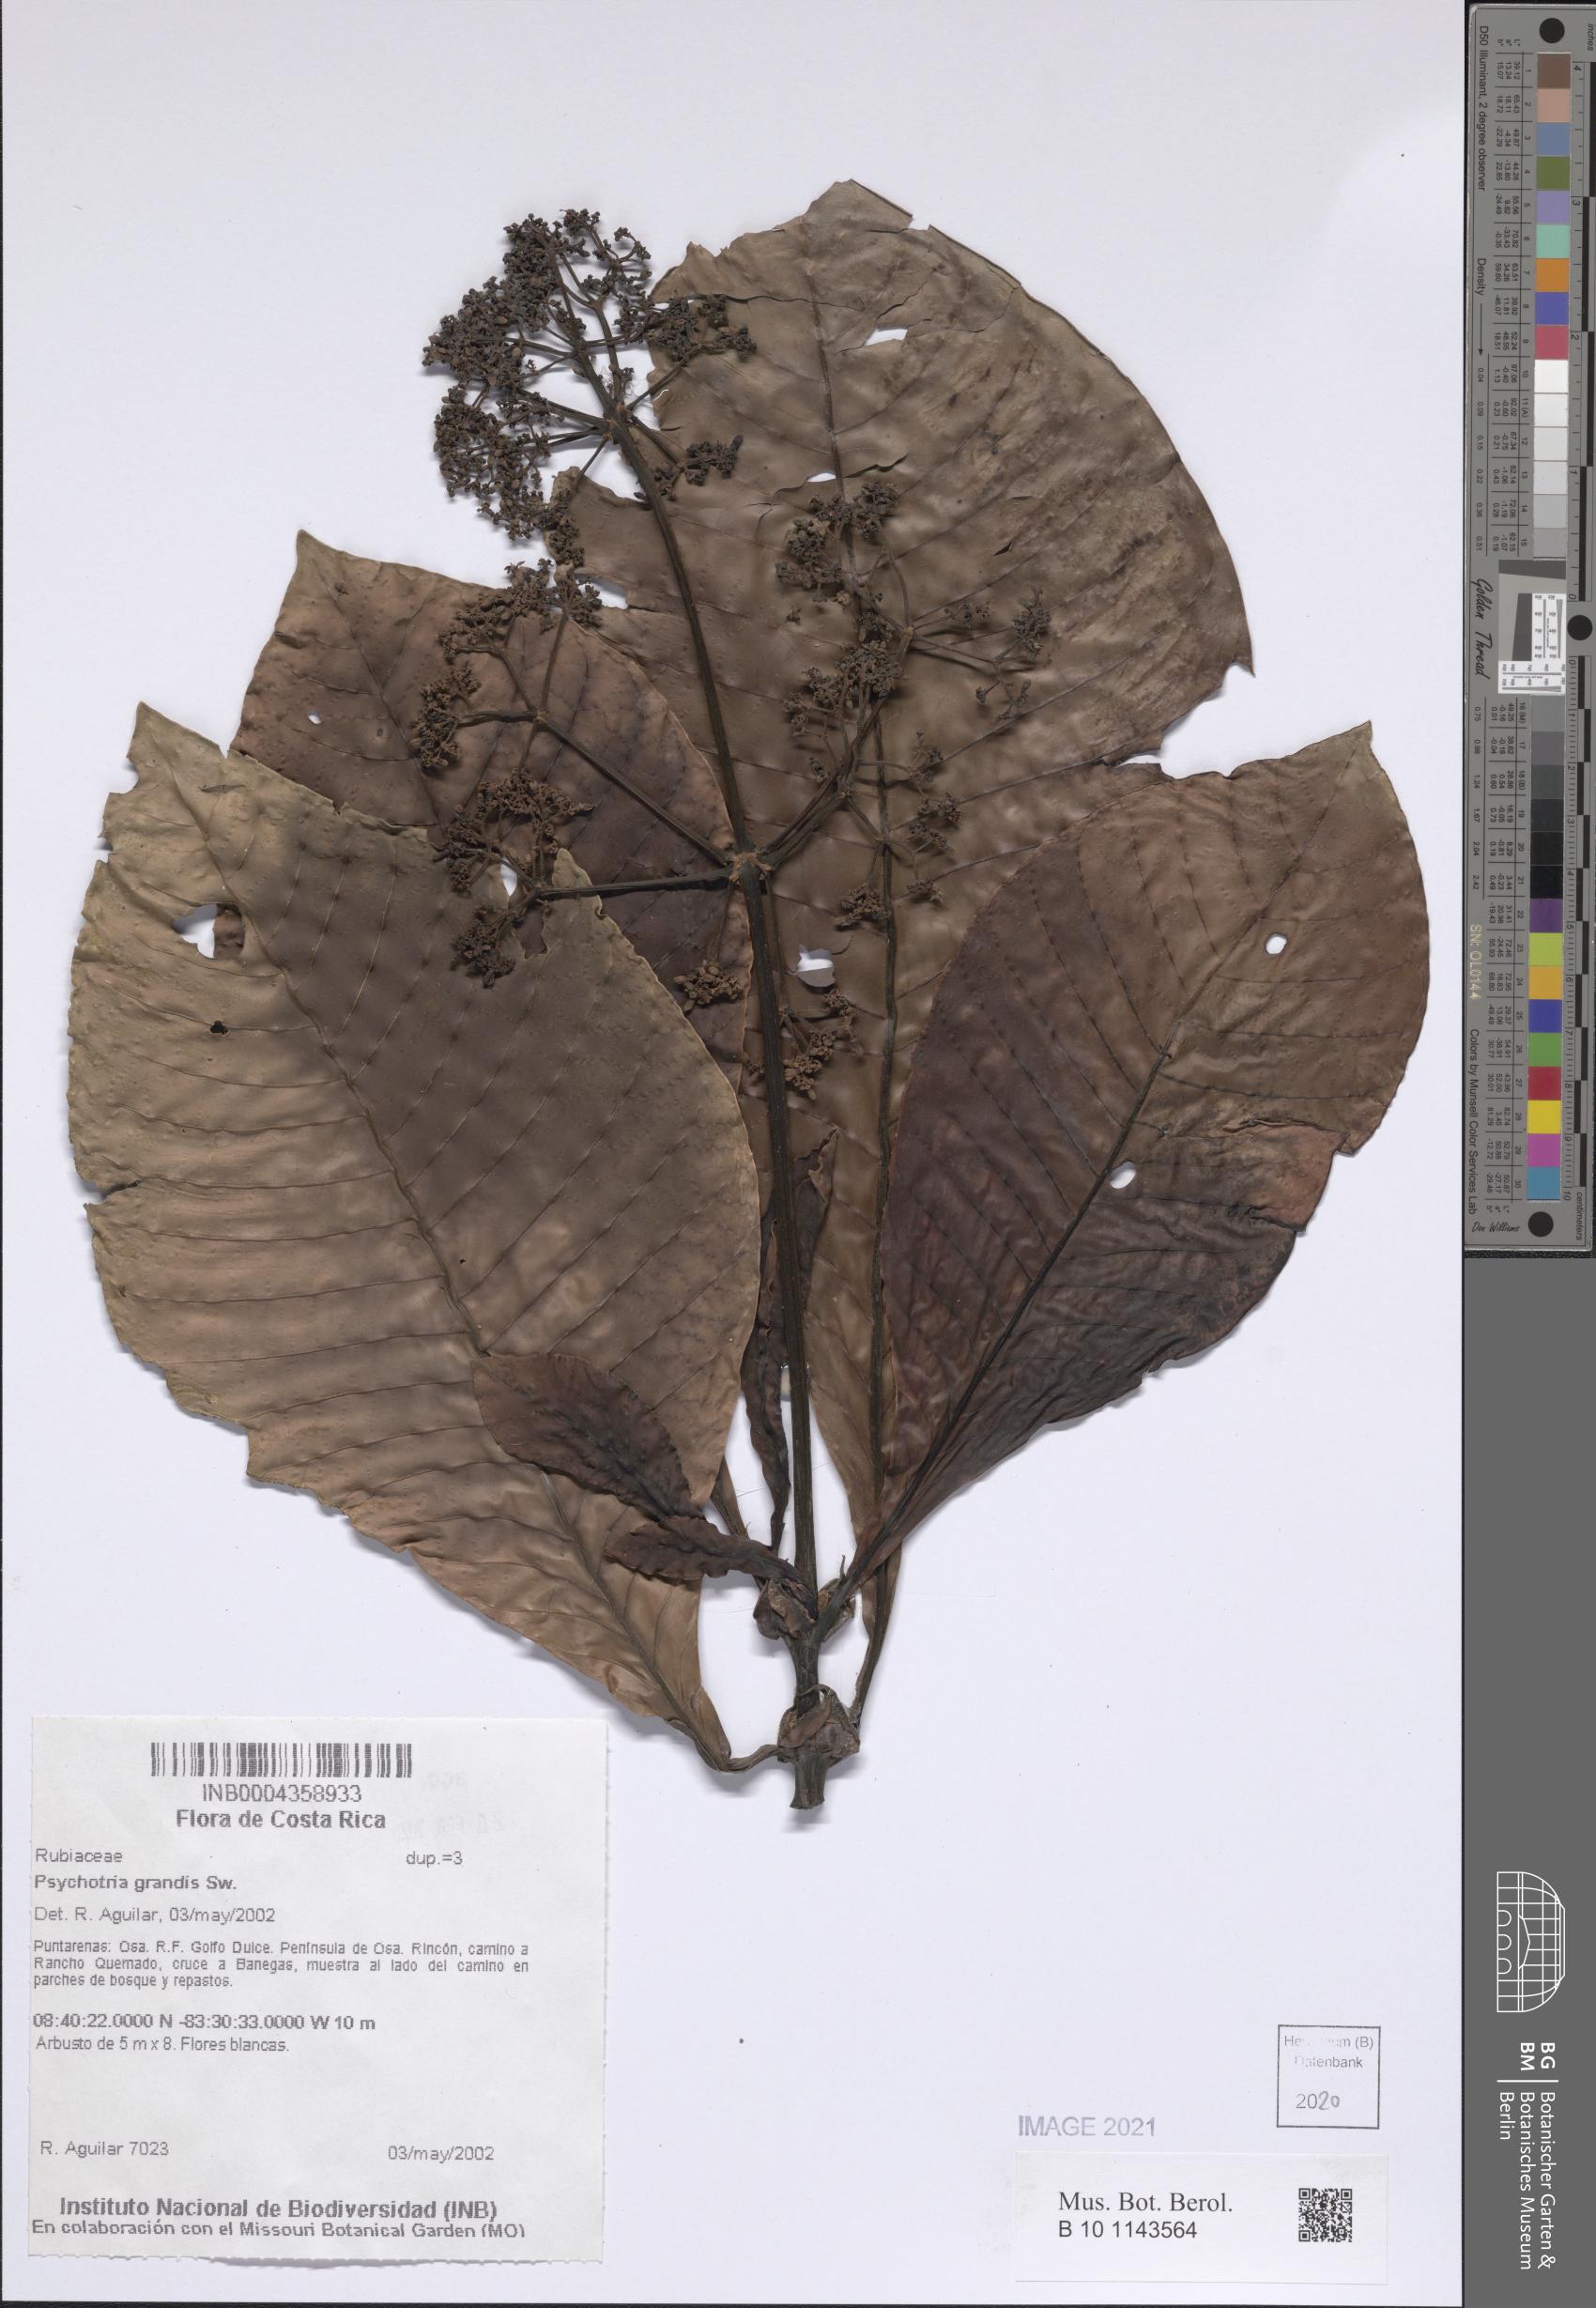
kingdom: Plantae
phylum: Tracheophyta
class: Magnoliopsida
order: Gentianales
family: Rubiaceae
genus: Psychotria
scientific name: Psychotria grandis
